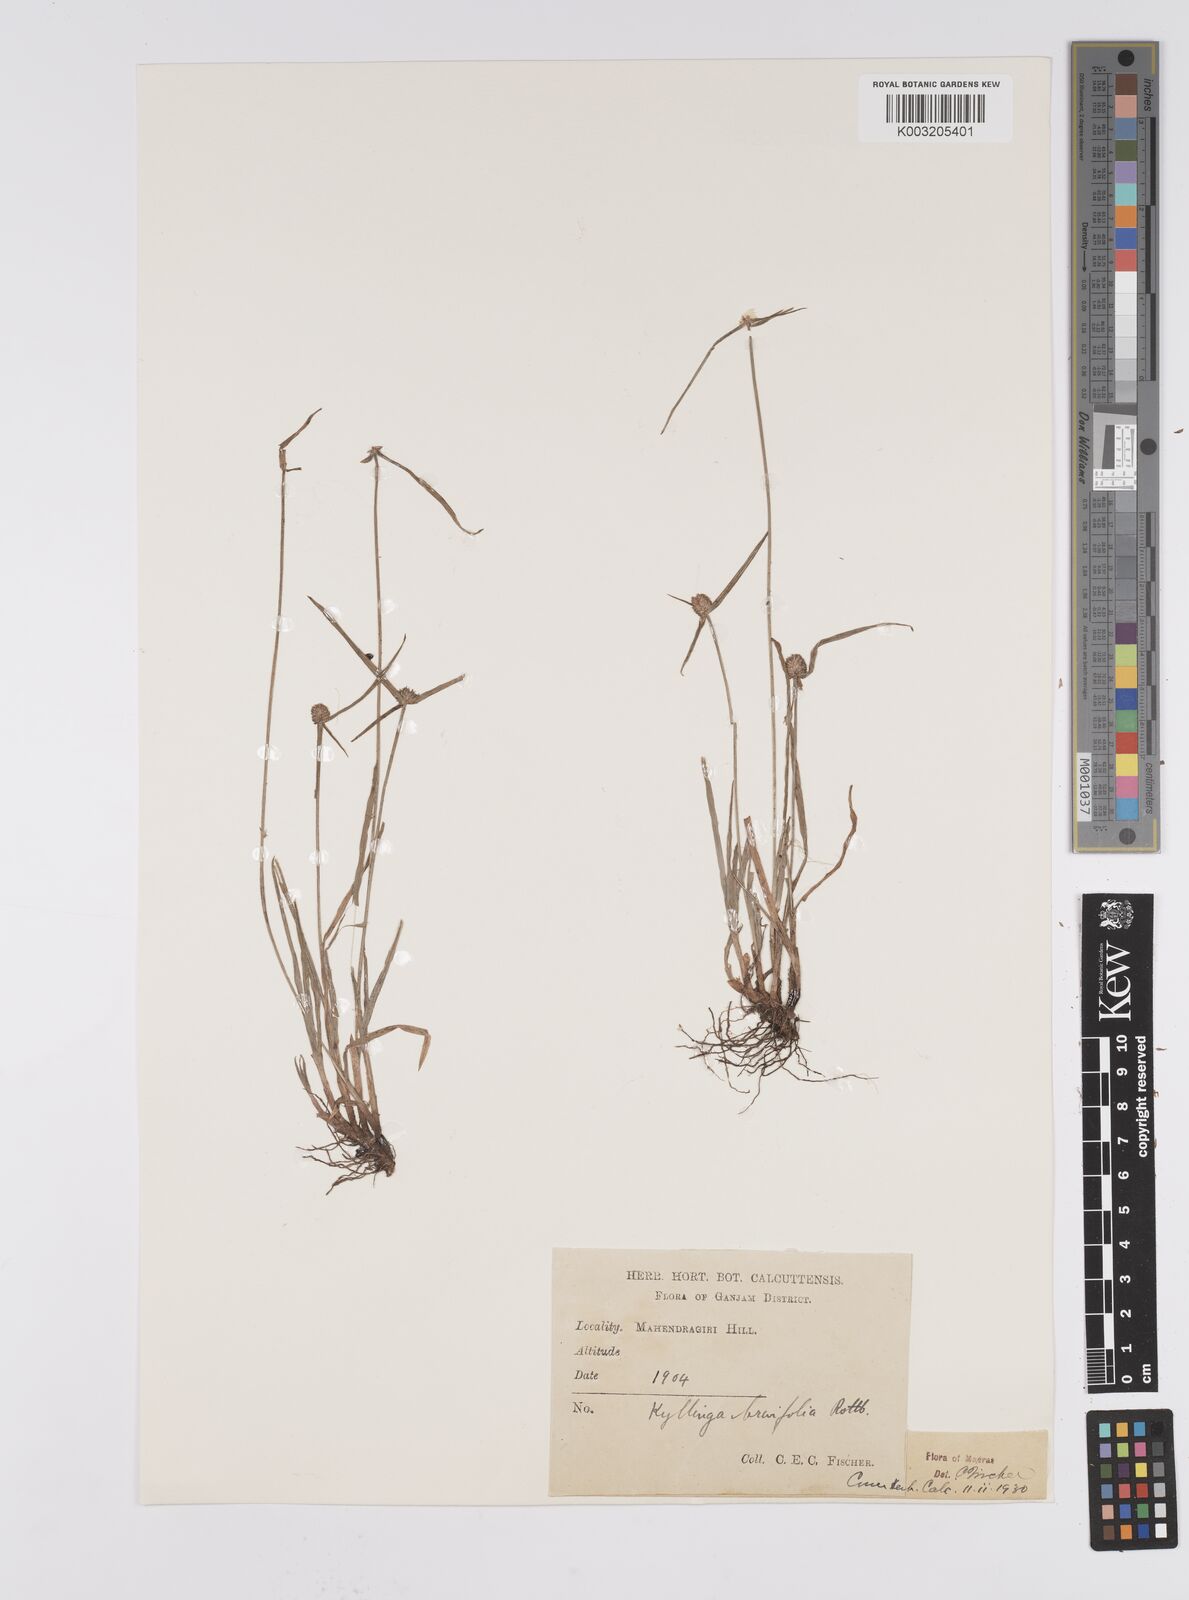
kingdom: Plantae
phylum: Tracheophyta
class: Liliopsida
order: Poales
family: Cyperaceae
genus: Cyperus
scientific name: Cyperus brevifolius
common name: Globe kyllinga
